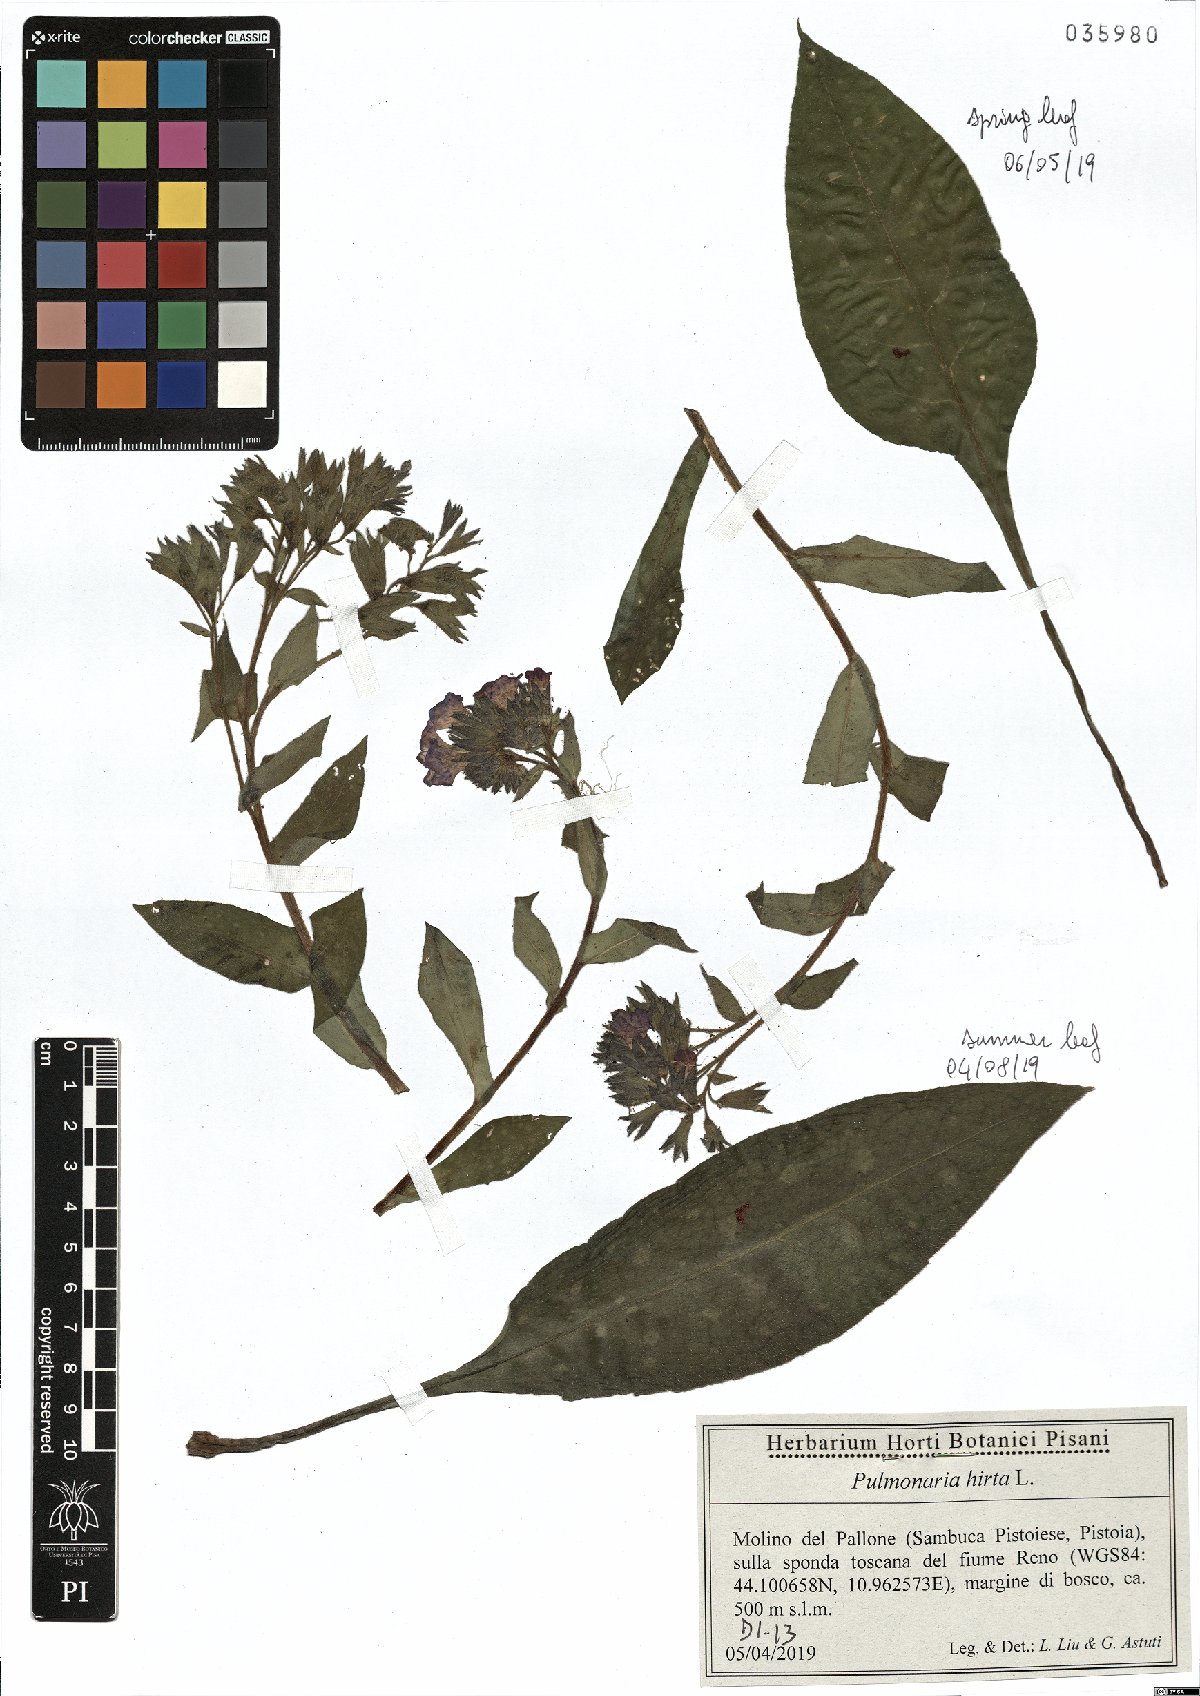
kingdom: Plantae
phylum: Tracheophyta
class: Magnoliopsida
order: Boraginales
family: Boraginaceae
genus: Pulmonaria
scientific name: Pulmonaria hirta
